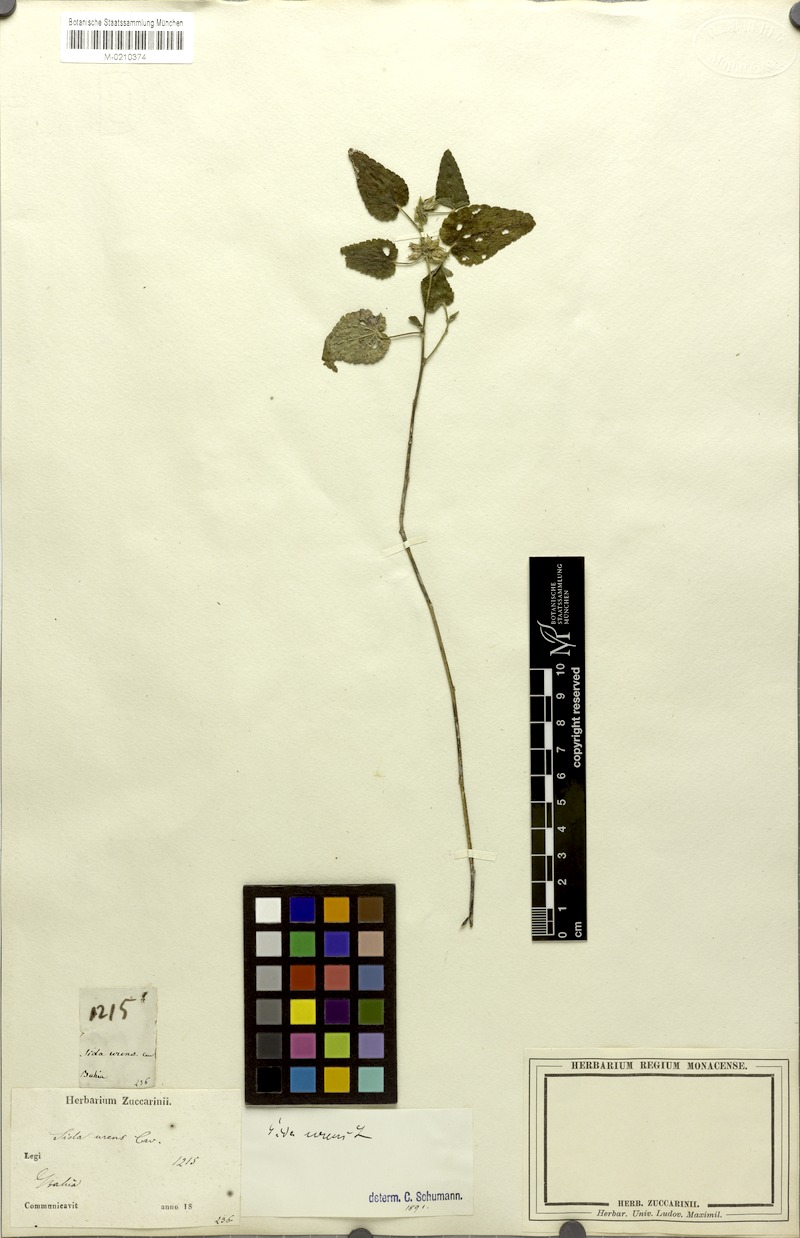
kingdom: Plantae
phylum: Tracheophyta
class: Magnoliopsida
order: Malvales
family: Malvaceae
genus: Sida
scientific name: Sida urens
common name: Tropical fanpetals
